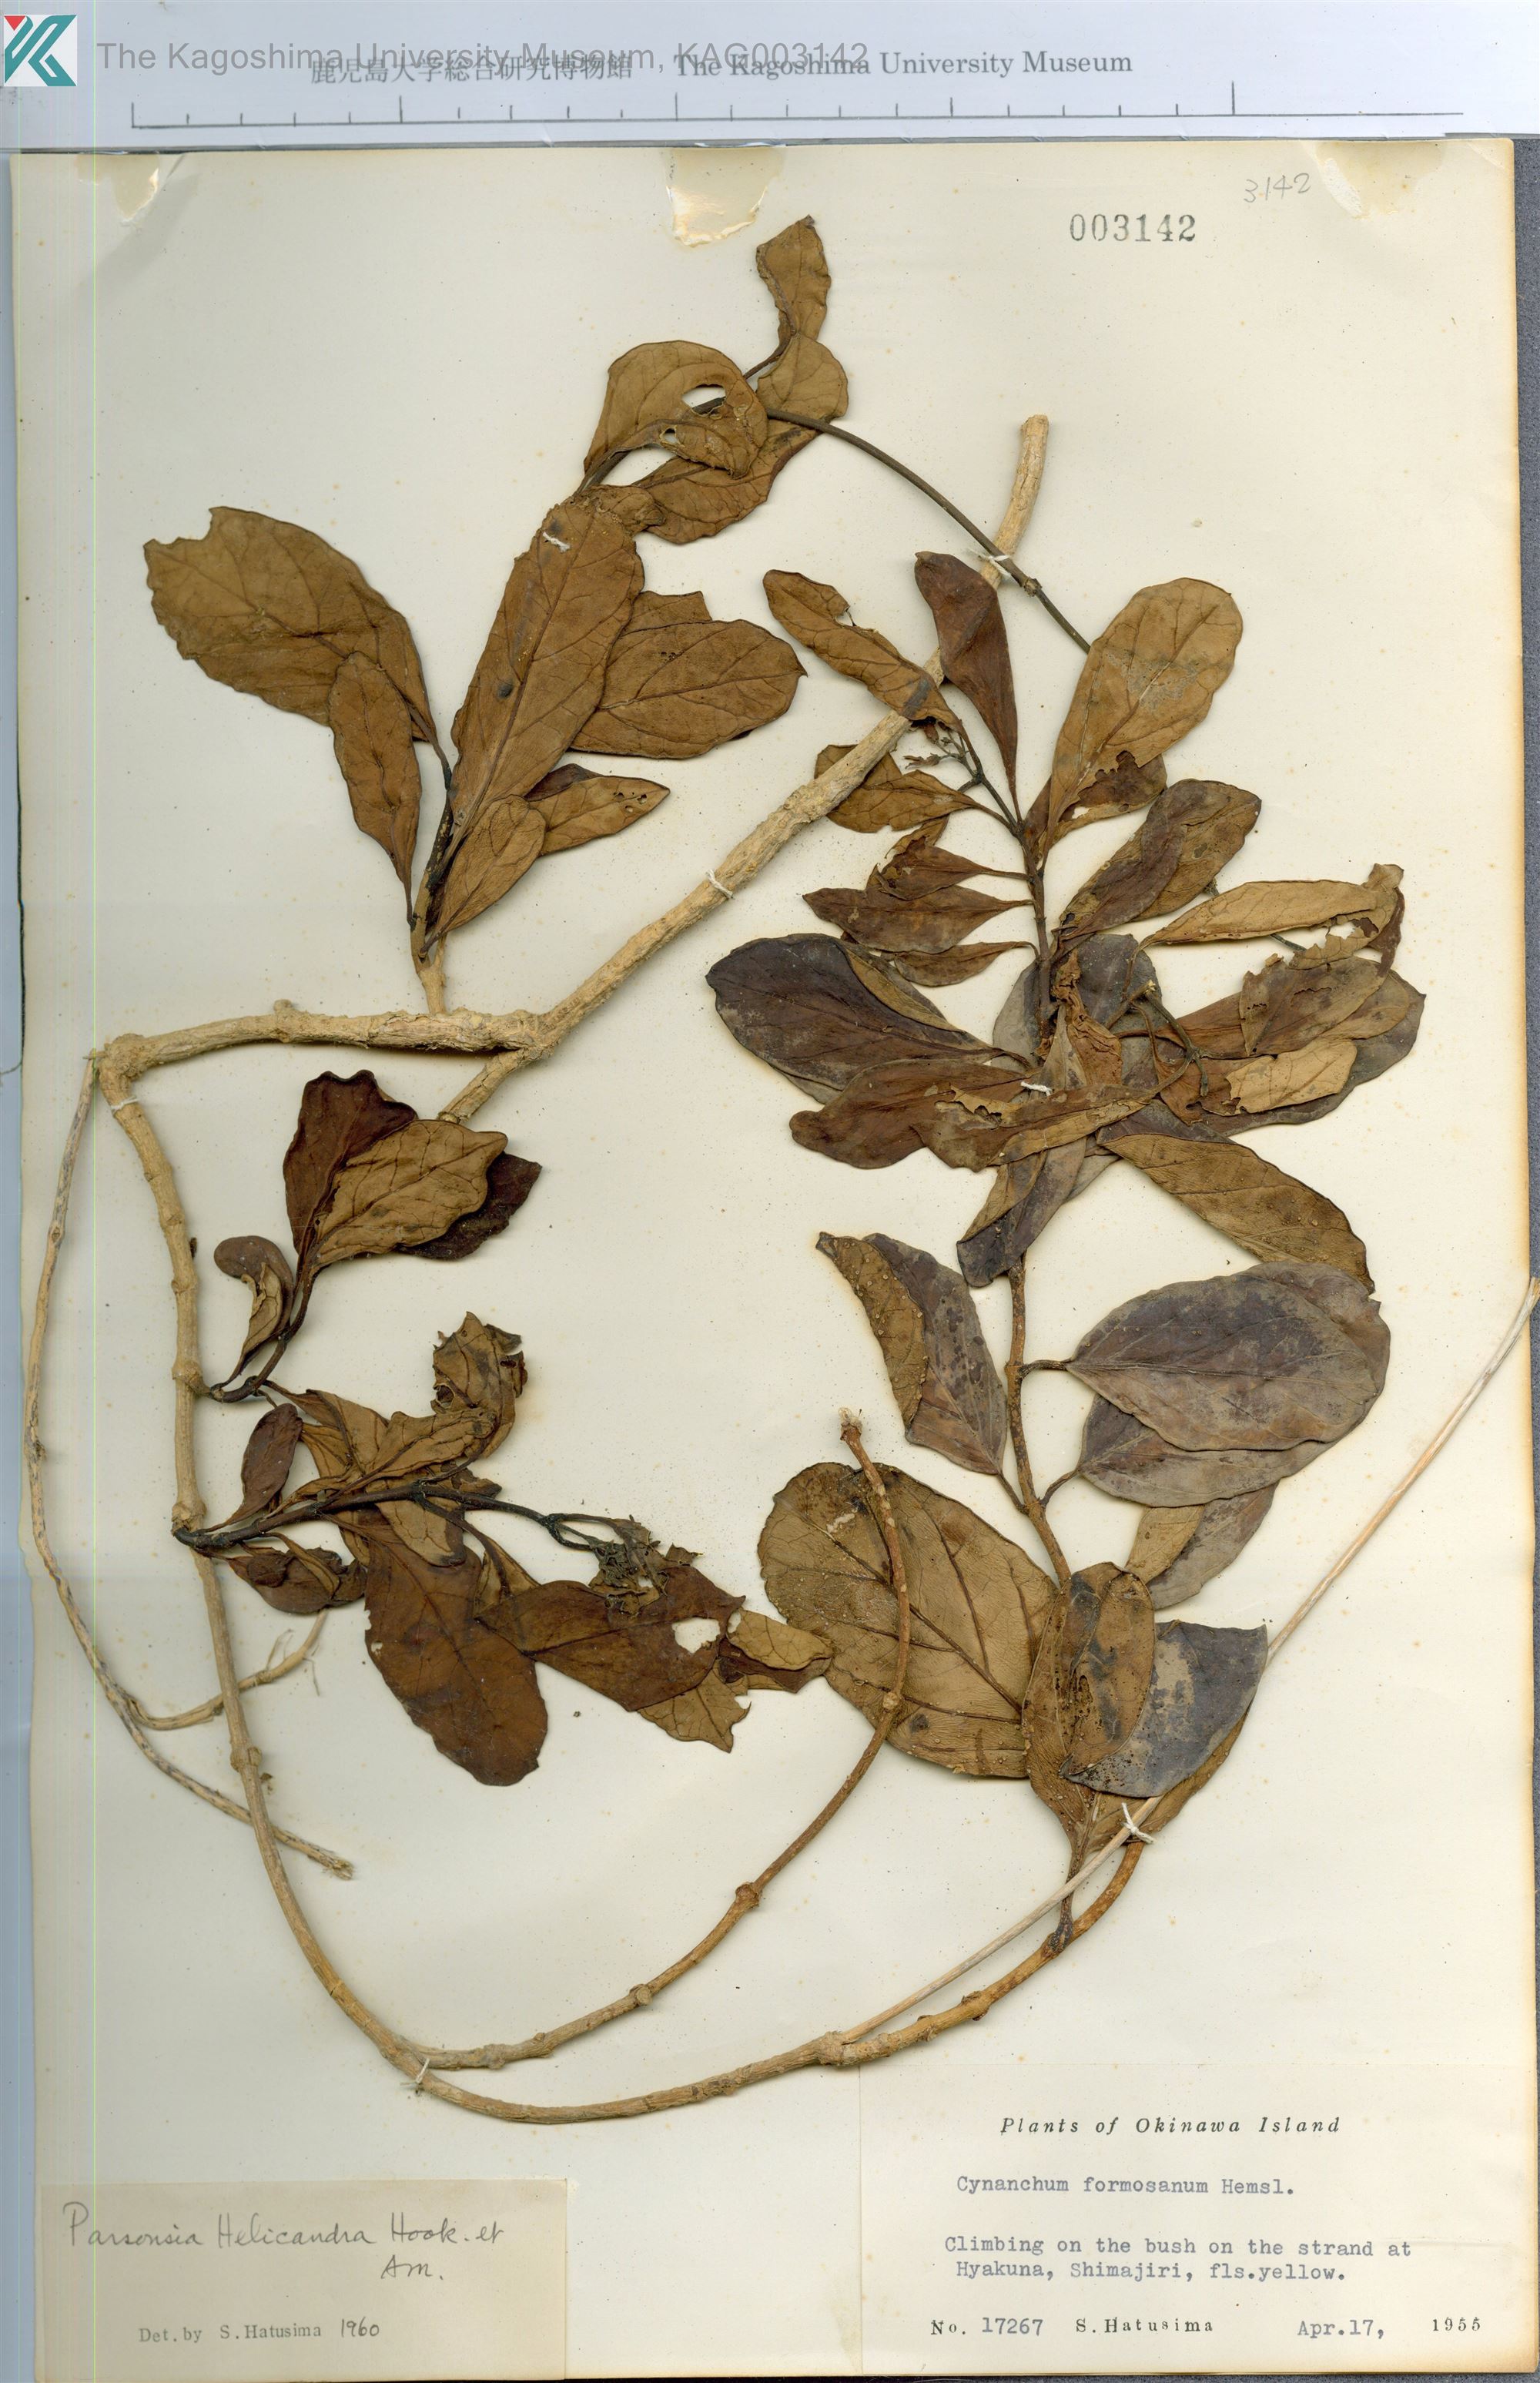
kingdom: Plantae
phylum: Tracheophyta
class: Magnoliopsida
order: Gentianales
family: Apocynaceae
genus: Parsonsia
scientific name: Parsonsia alboflavescens
